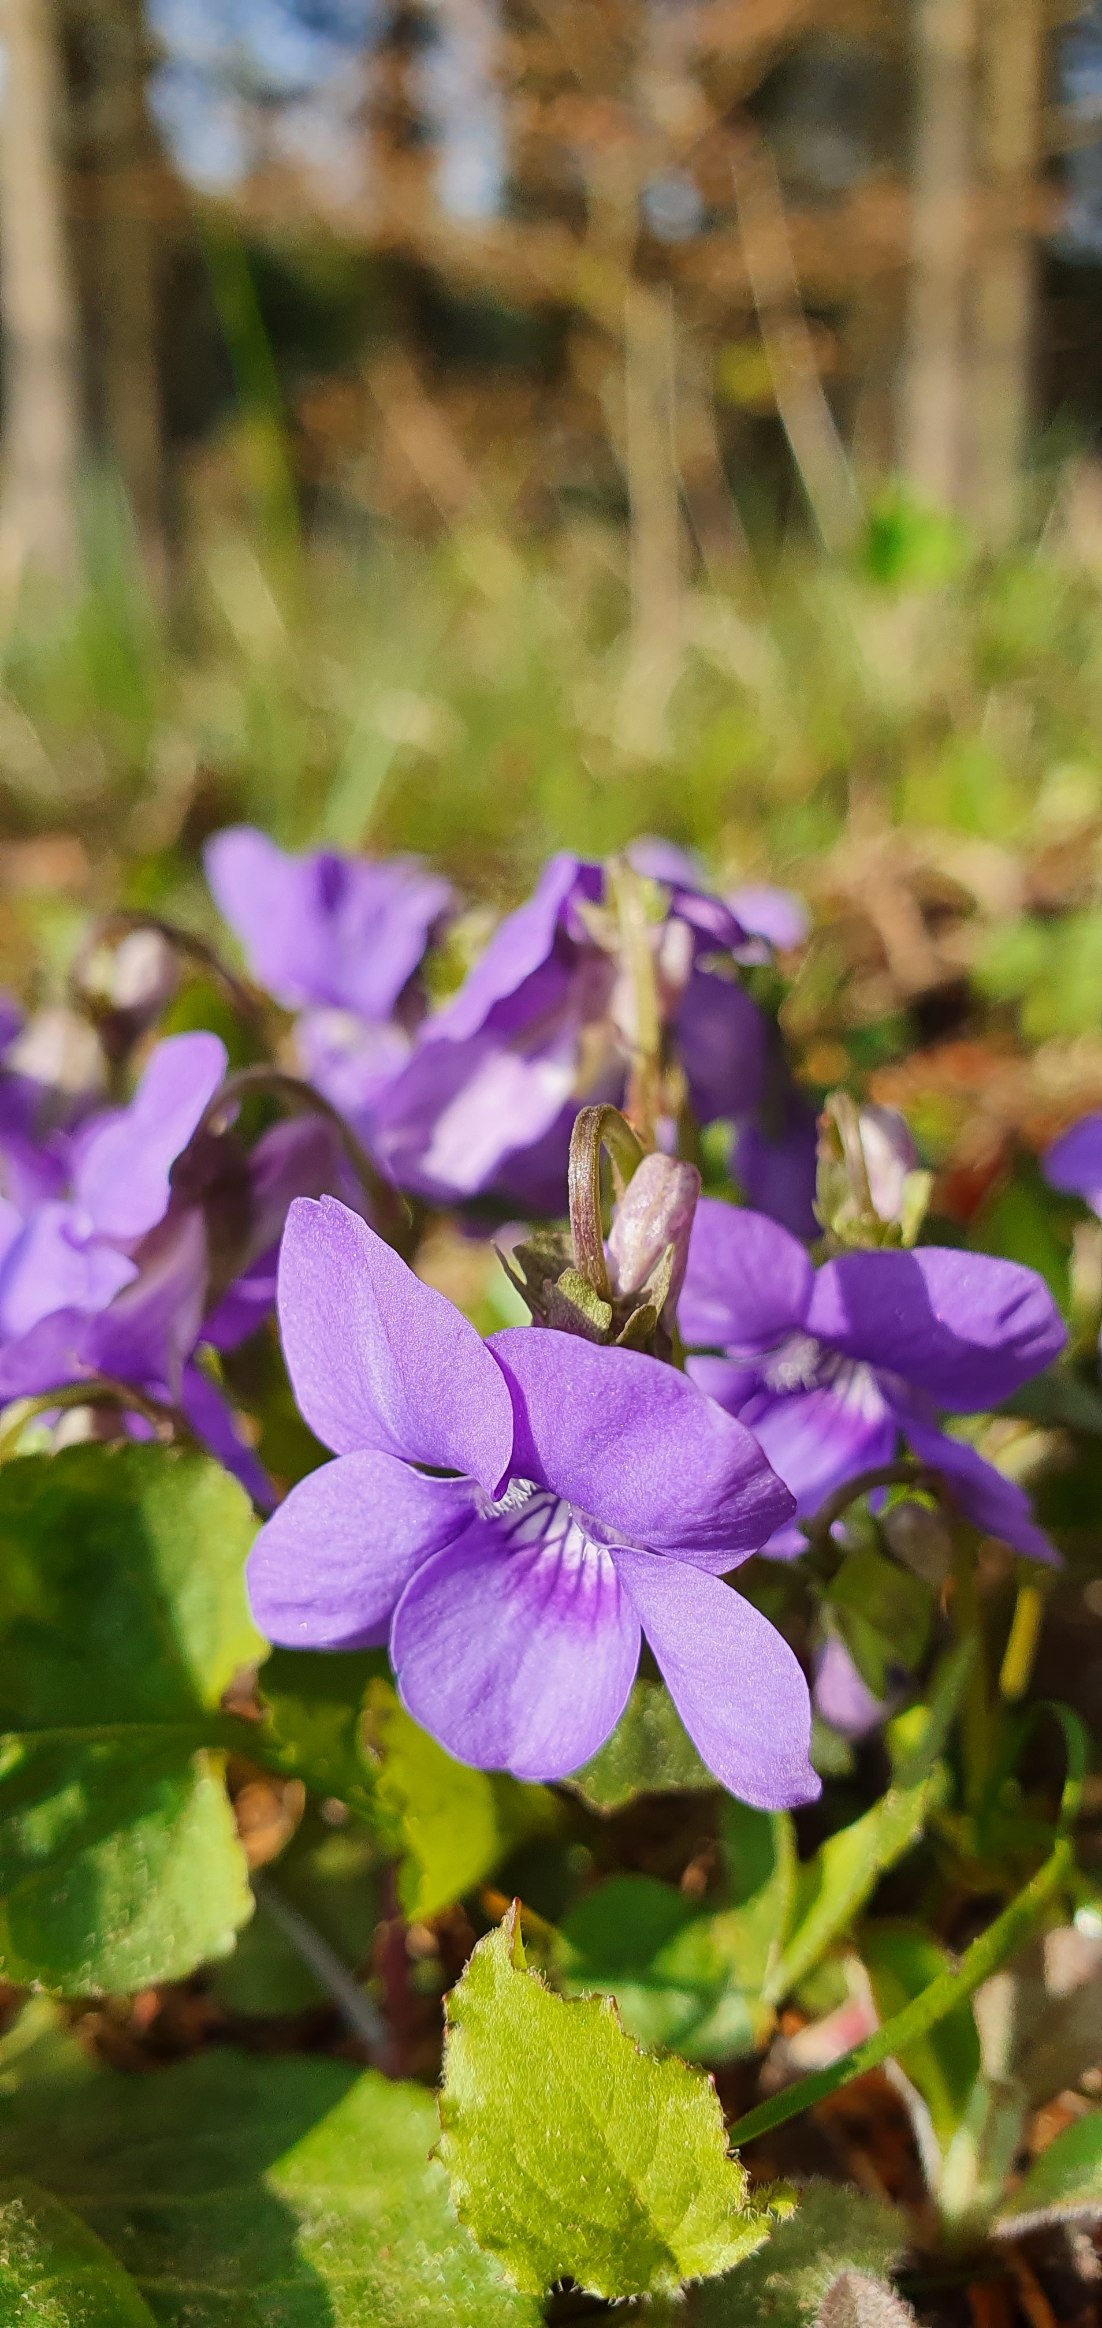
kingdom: Plantae
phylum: Tracheophyta
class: Magnoliopsida
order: Malpighiales
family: Violaceae
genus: Viola
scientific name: Viola riviniana
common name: Krat-viol
